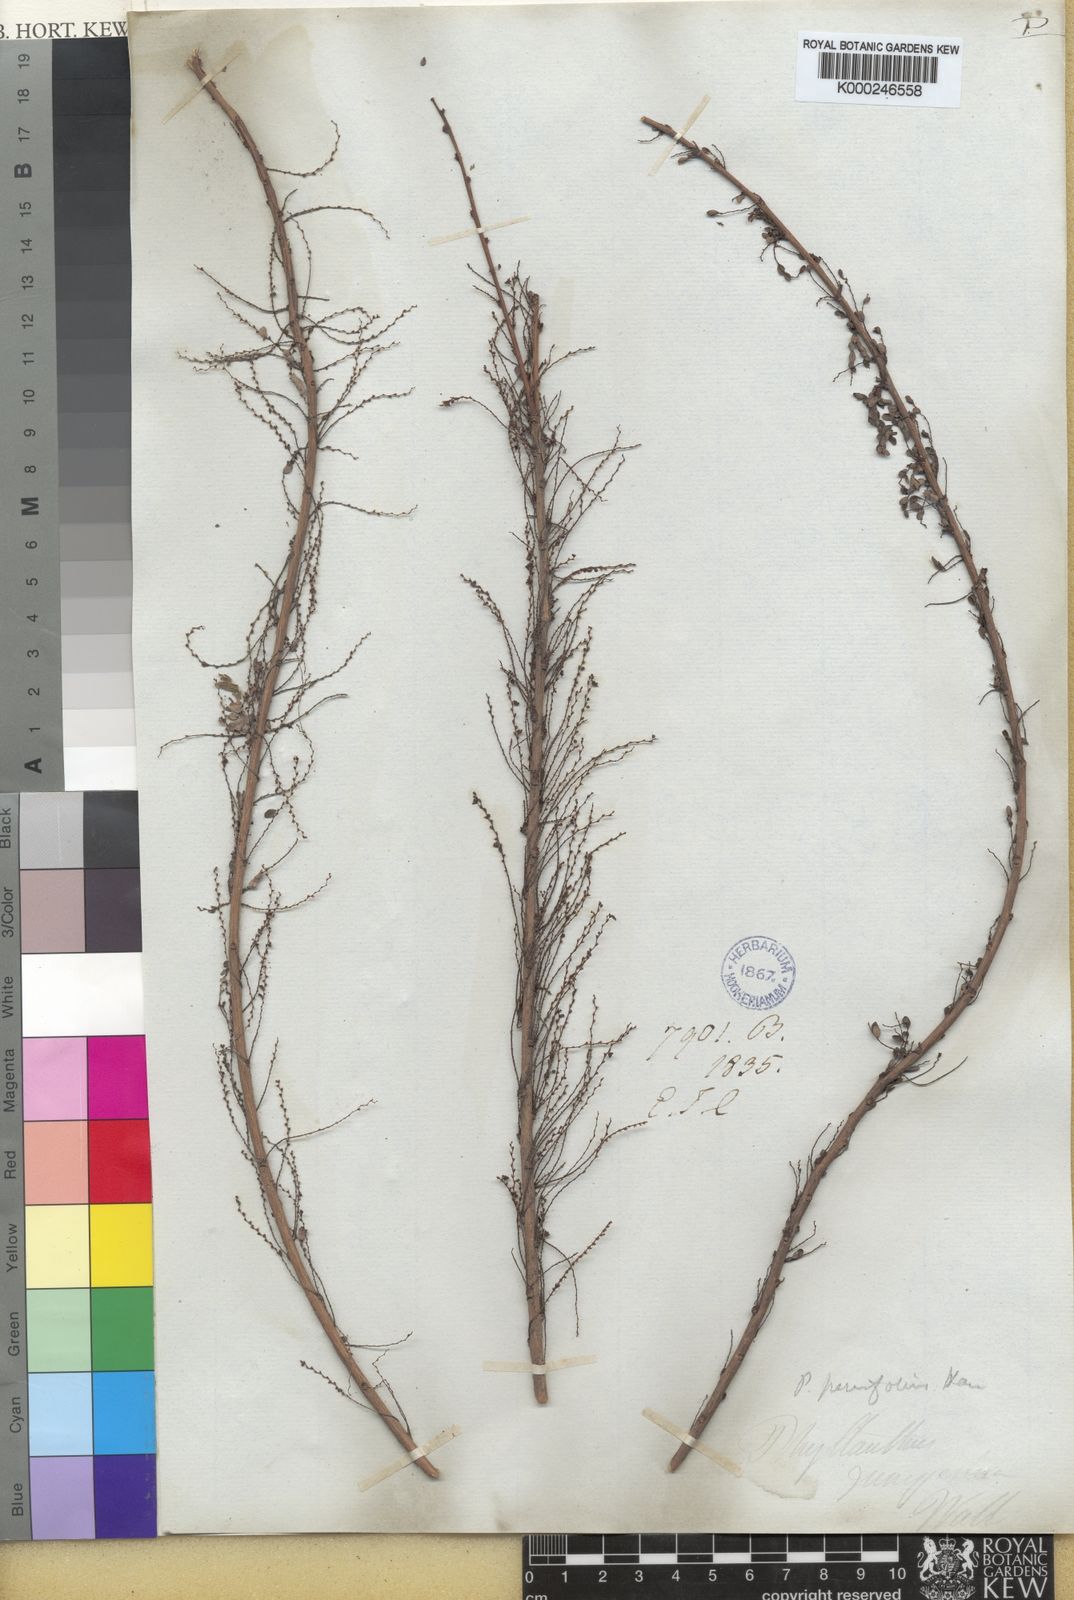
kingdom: Plantae
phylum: Tracheophyta
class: Magnoliopsida
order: Malpighiales
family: Phyllanthaceae
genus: Phyllanthus
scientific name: Phyllanthus parvifolius
